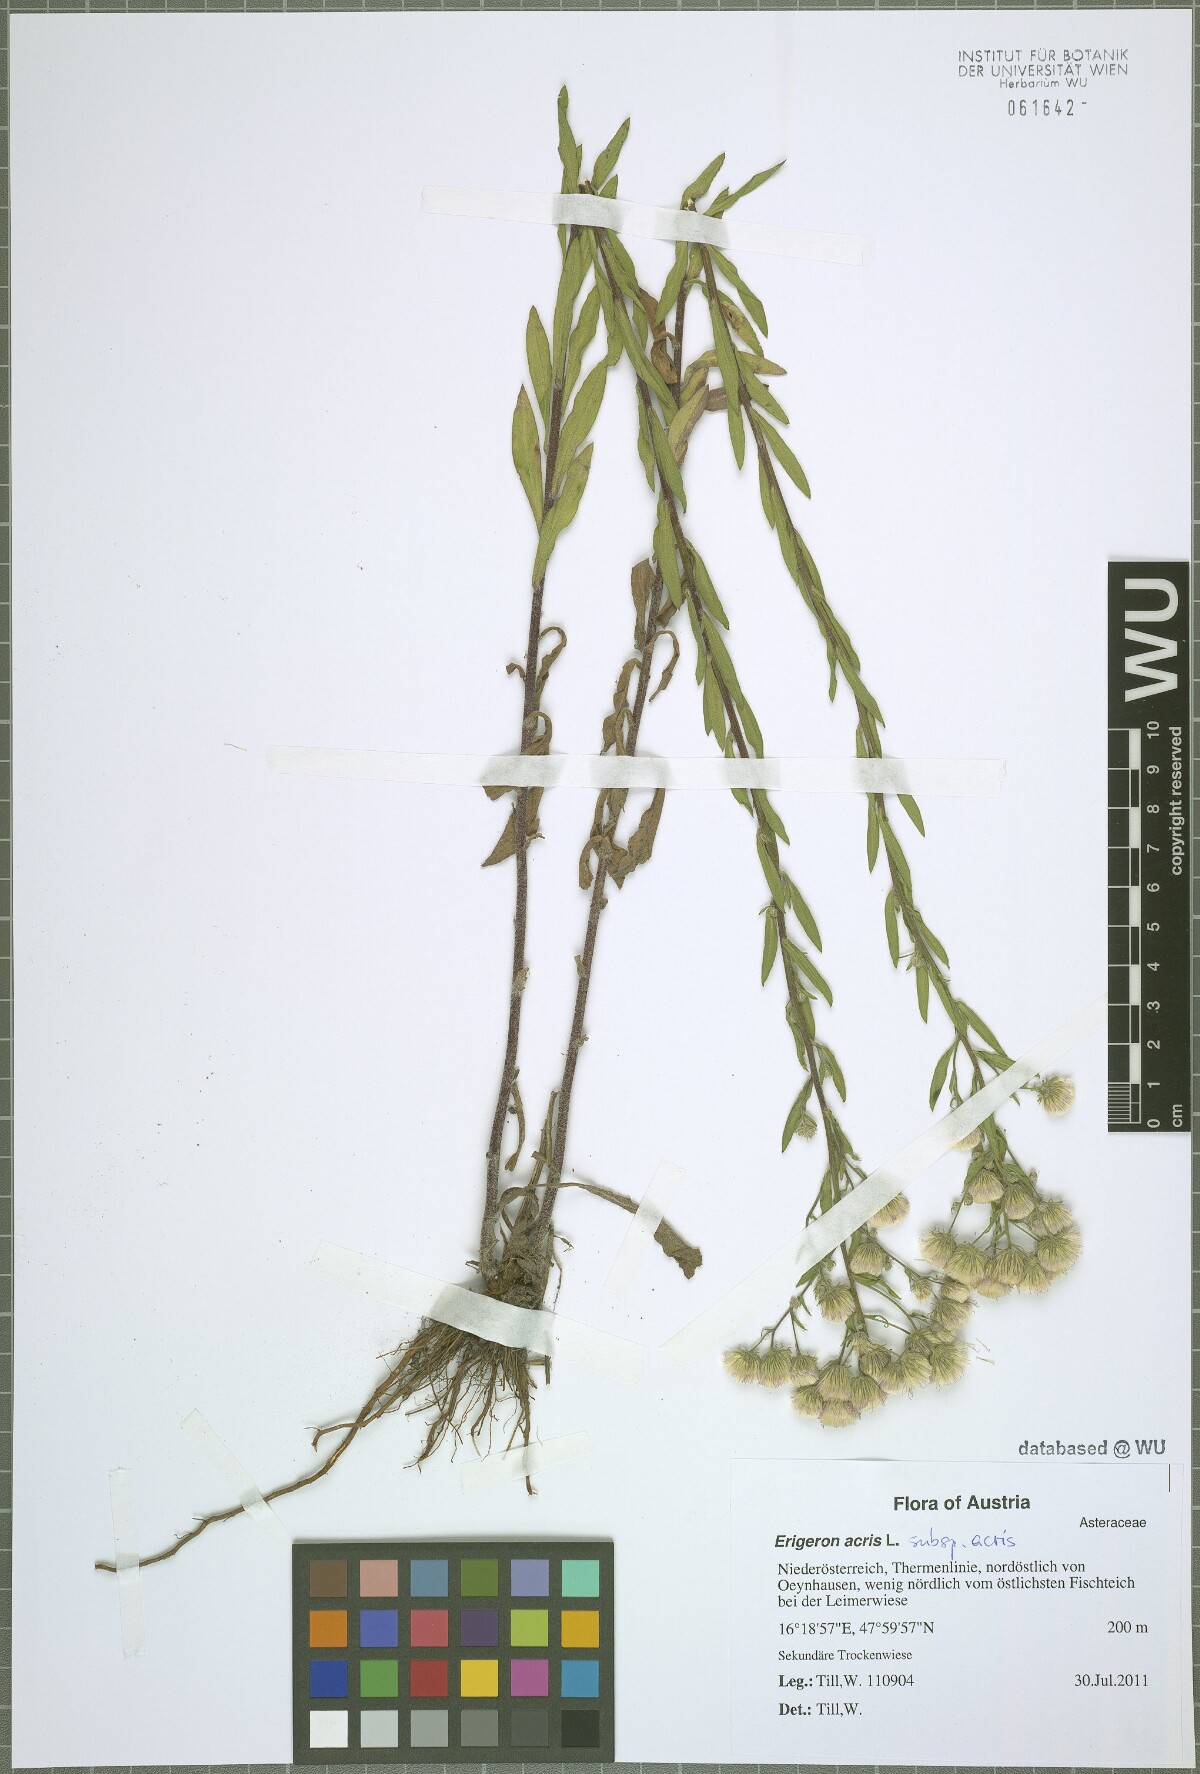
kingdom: Plantae
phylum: Tracheophyta
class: Magnoliopsida
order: Asterales
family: Asteraceae
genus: Erigeron
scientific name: Erigeron acris
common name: Blue fleabane
